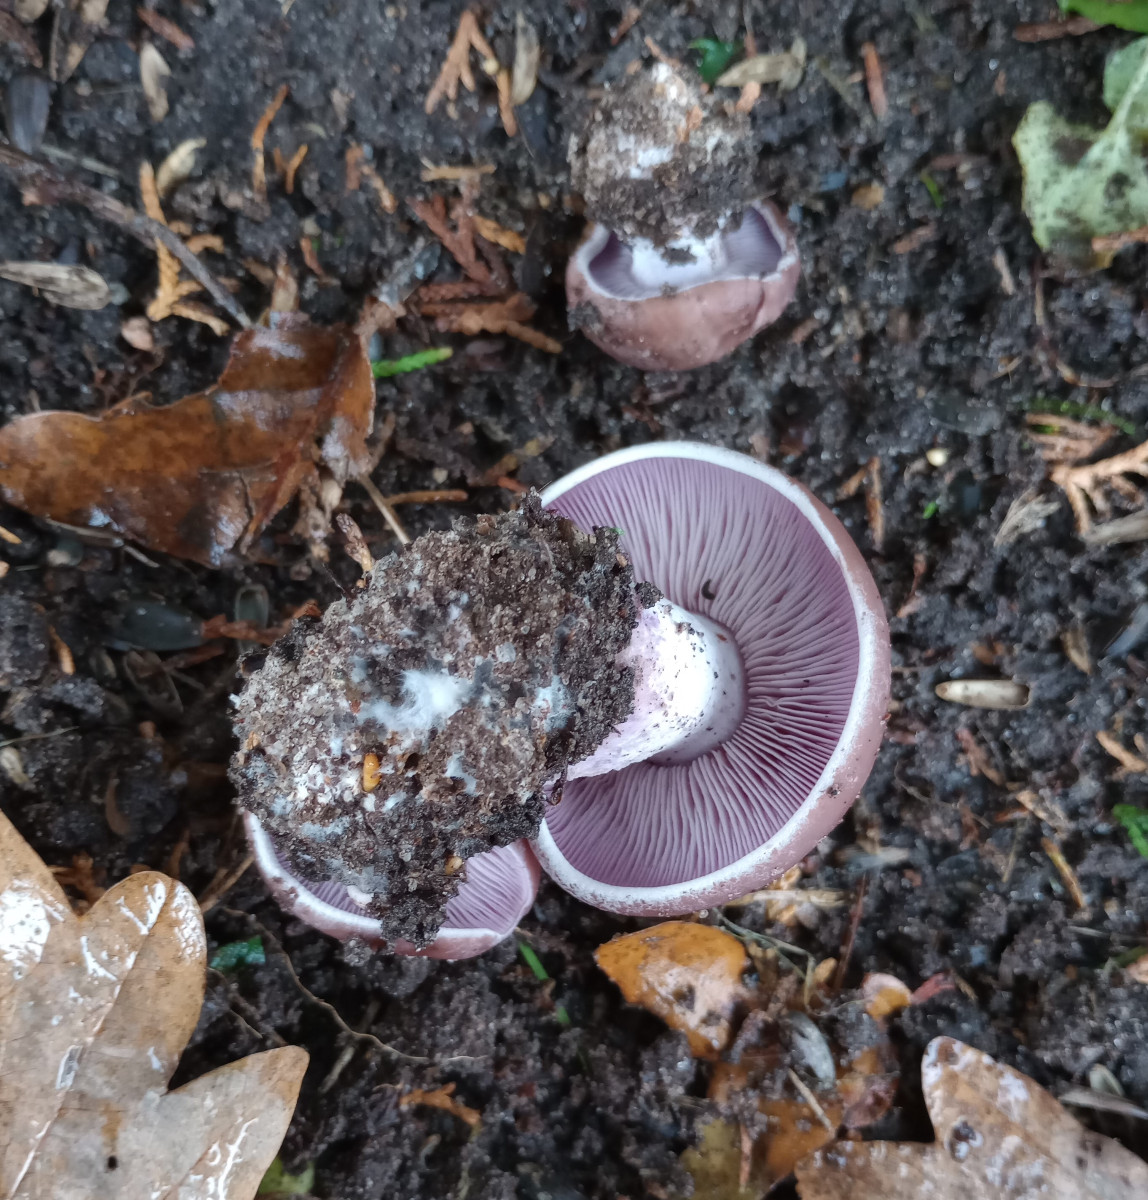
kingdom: Fungi
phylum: Basidiomycota
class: Agaricomycetes
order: Agaricales
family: Tricholomataceae
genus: Lepista
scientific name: Lepista nuda
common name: violet hekseringshat
